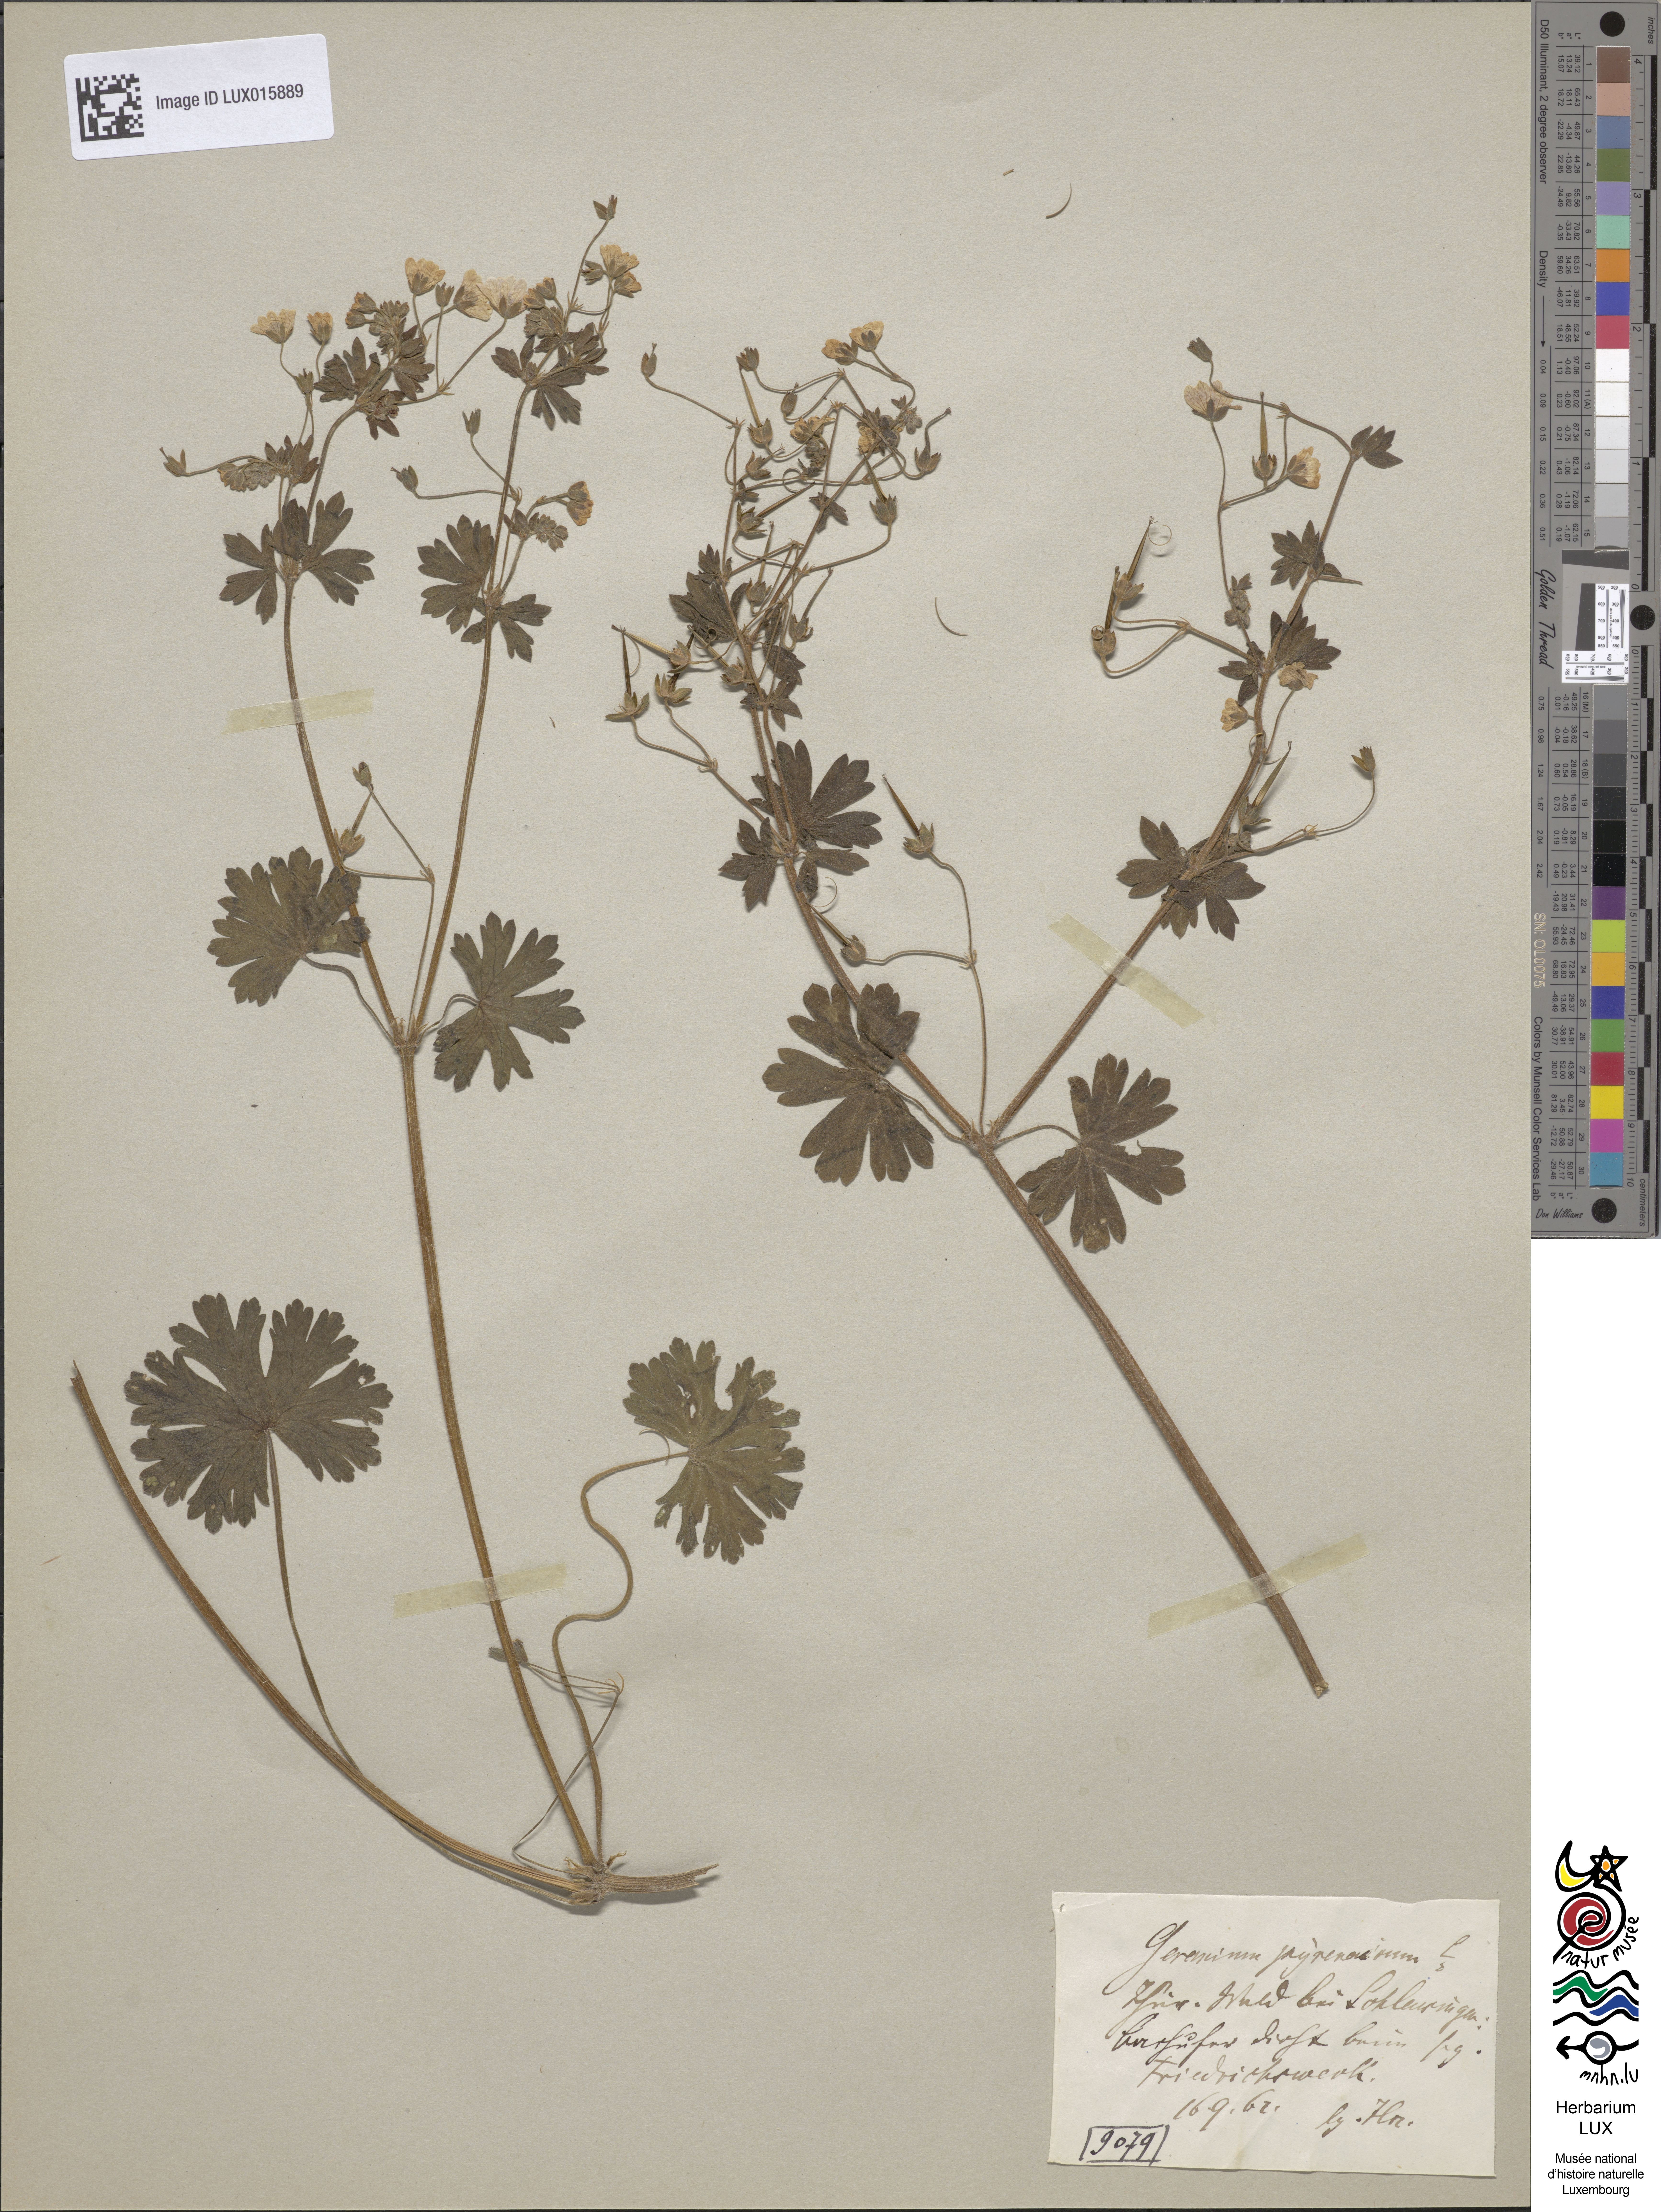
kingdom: Plantae
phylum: Tracheophyta
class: Magnoliopsida
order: Geraniales
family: Geraniaceae
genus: Geranium
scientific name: Geranium pyrenaicum
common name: Hedgerow crane's-bill
